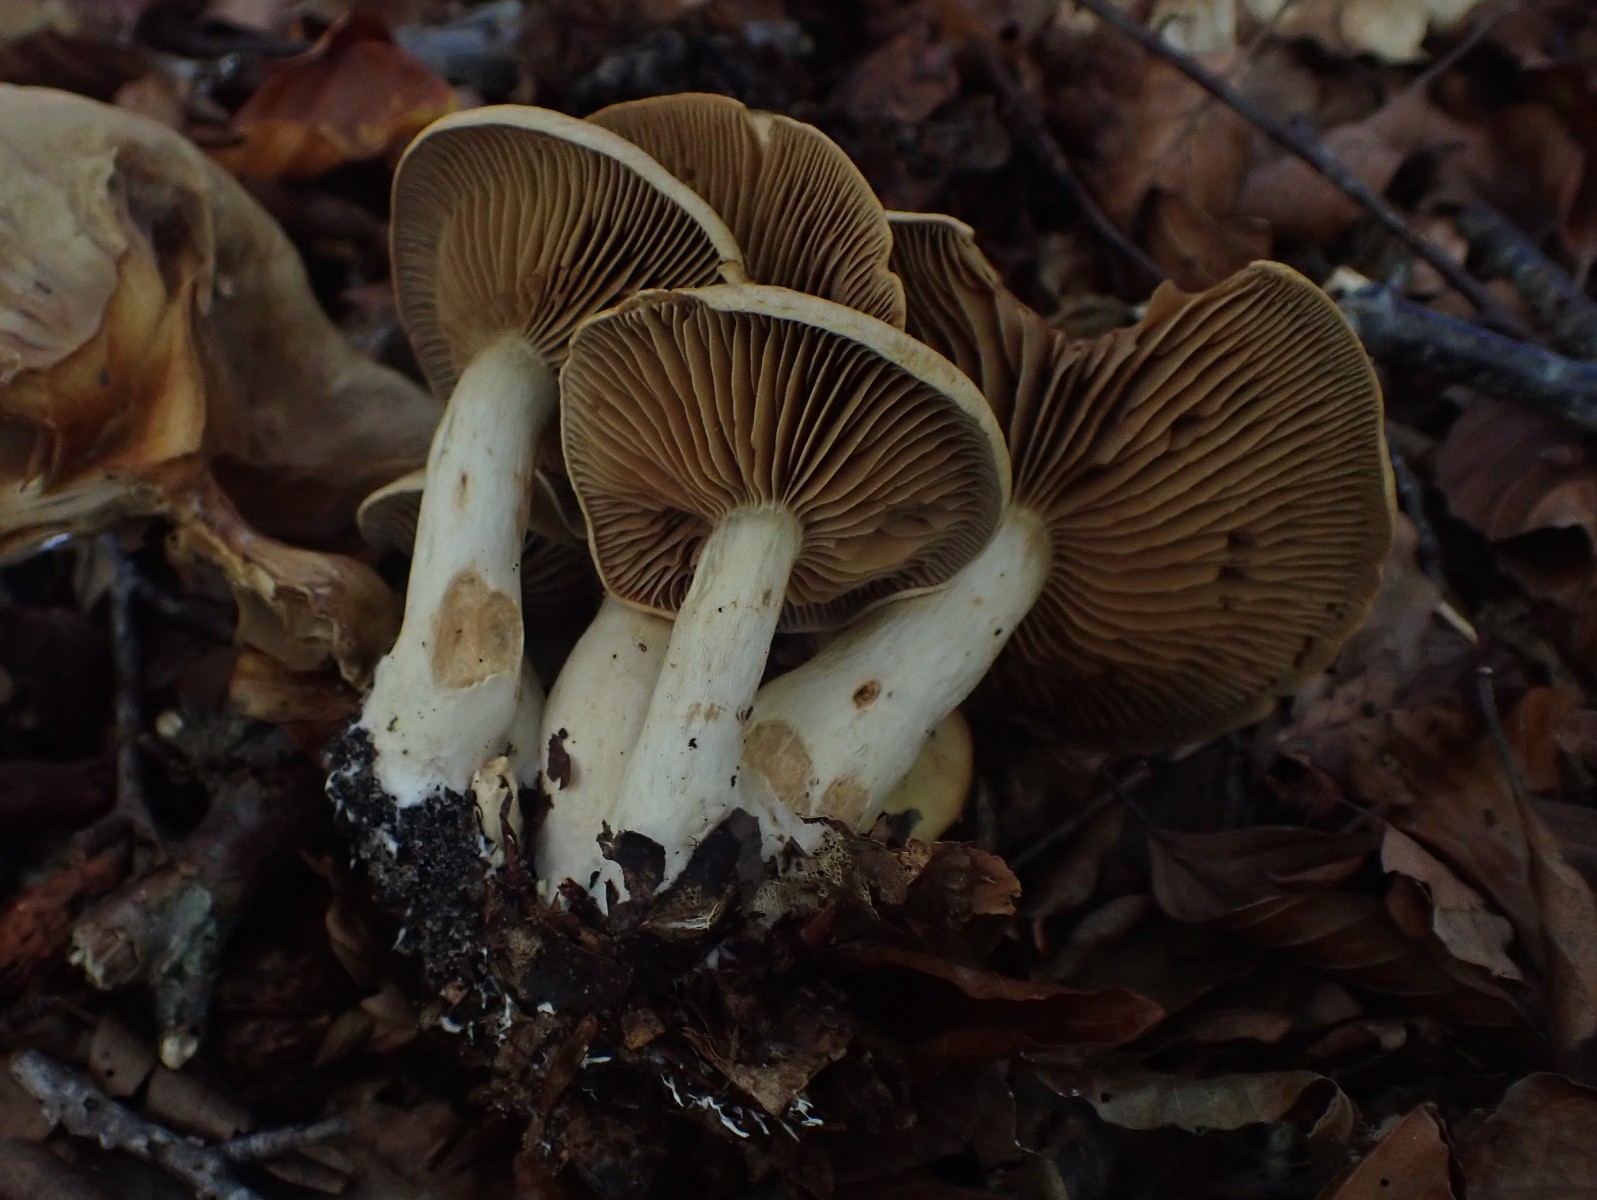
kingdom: Fungi
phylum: Basidiomycota
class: Agaricomycetes
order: Agaricales
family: Cortinariaceae
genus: Cortinarius
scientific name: Cortinarius subtortus
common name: olivengul slørhat
